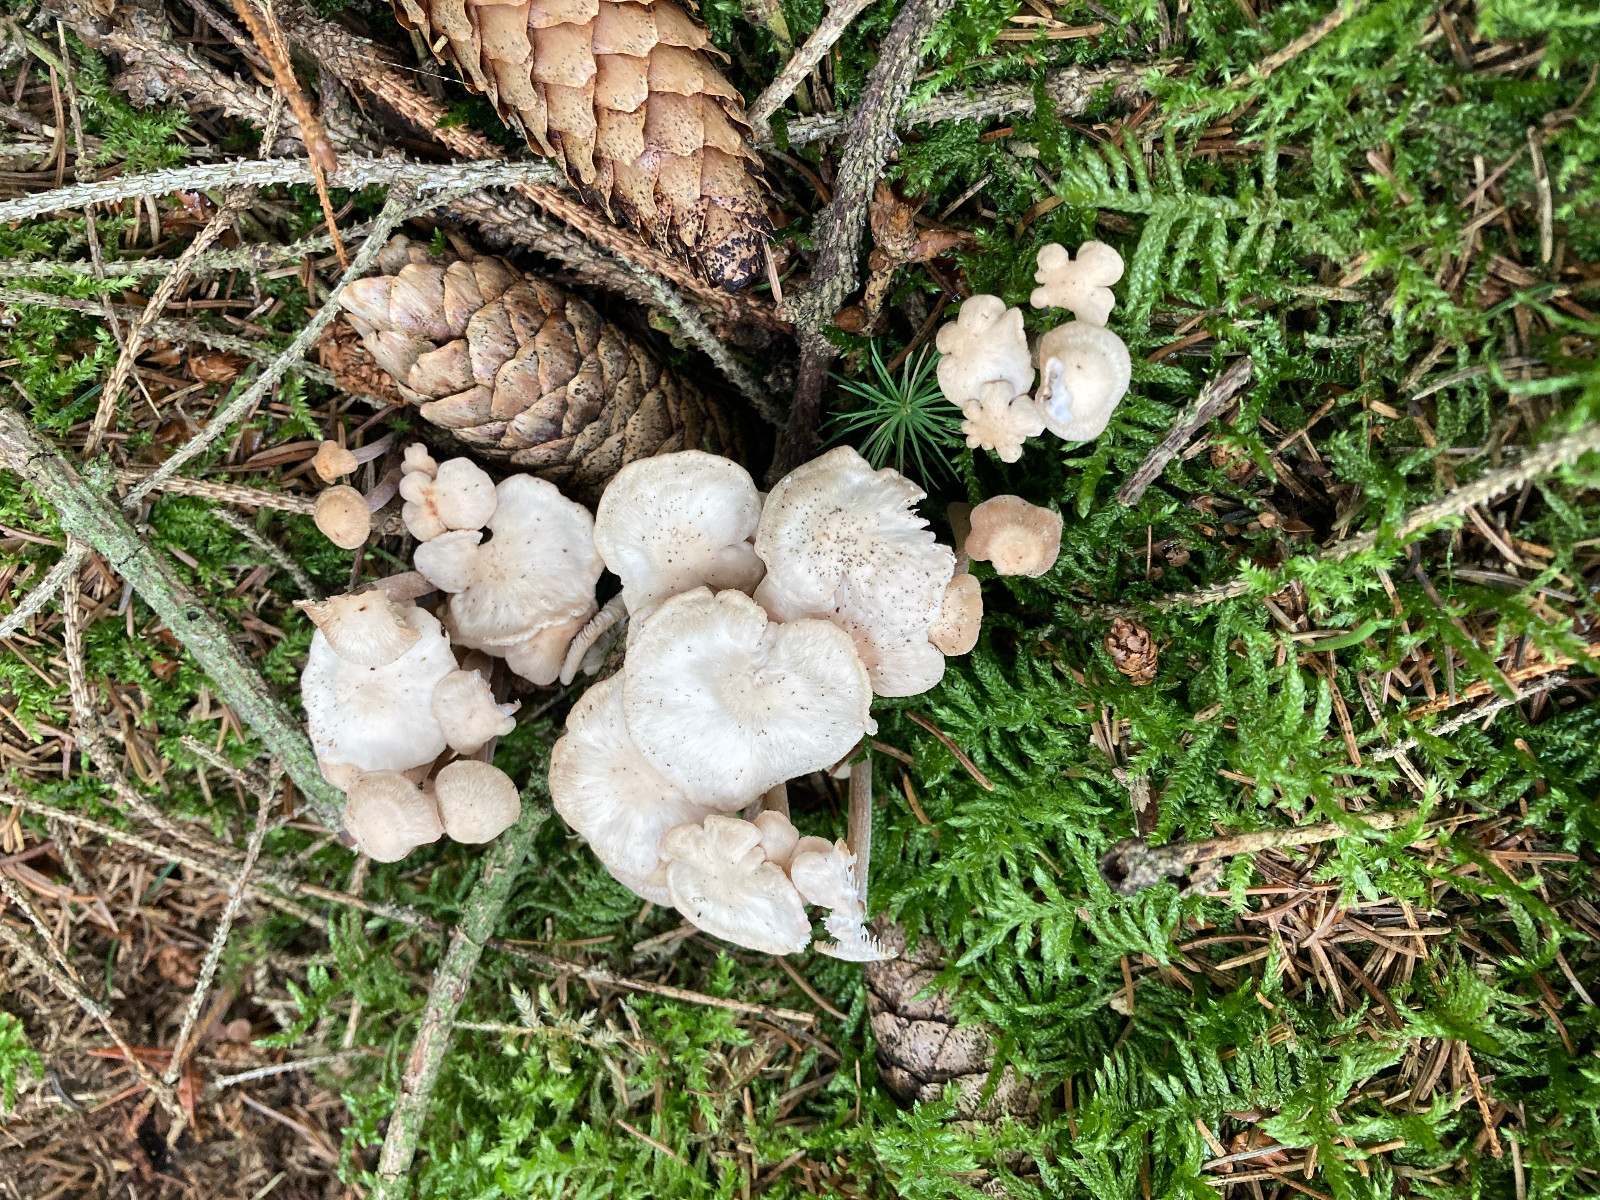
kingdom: Fungi
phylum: Basidiomycota
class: Agaricomycetes
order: Agaricales
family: Omphalotaceae
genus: Collybiopsis
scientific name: Collybiopsis confluens
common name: knippe-fladhat
